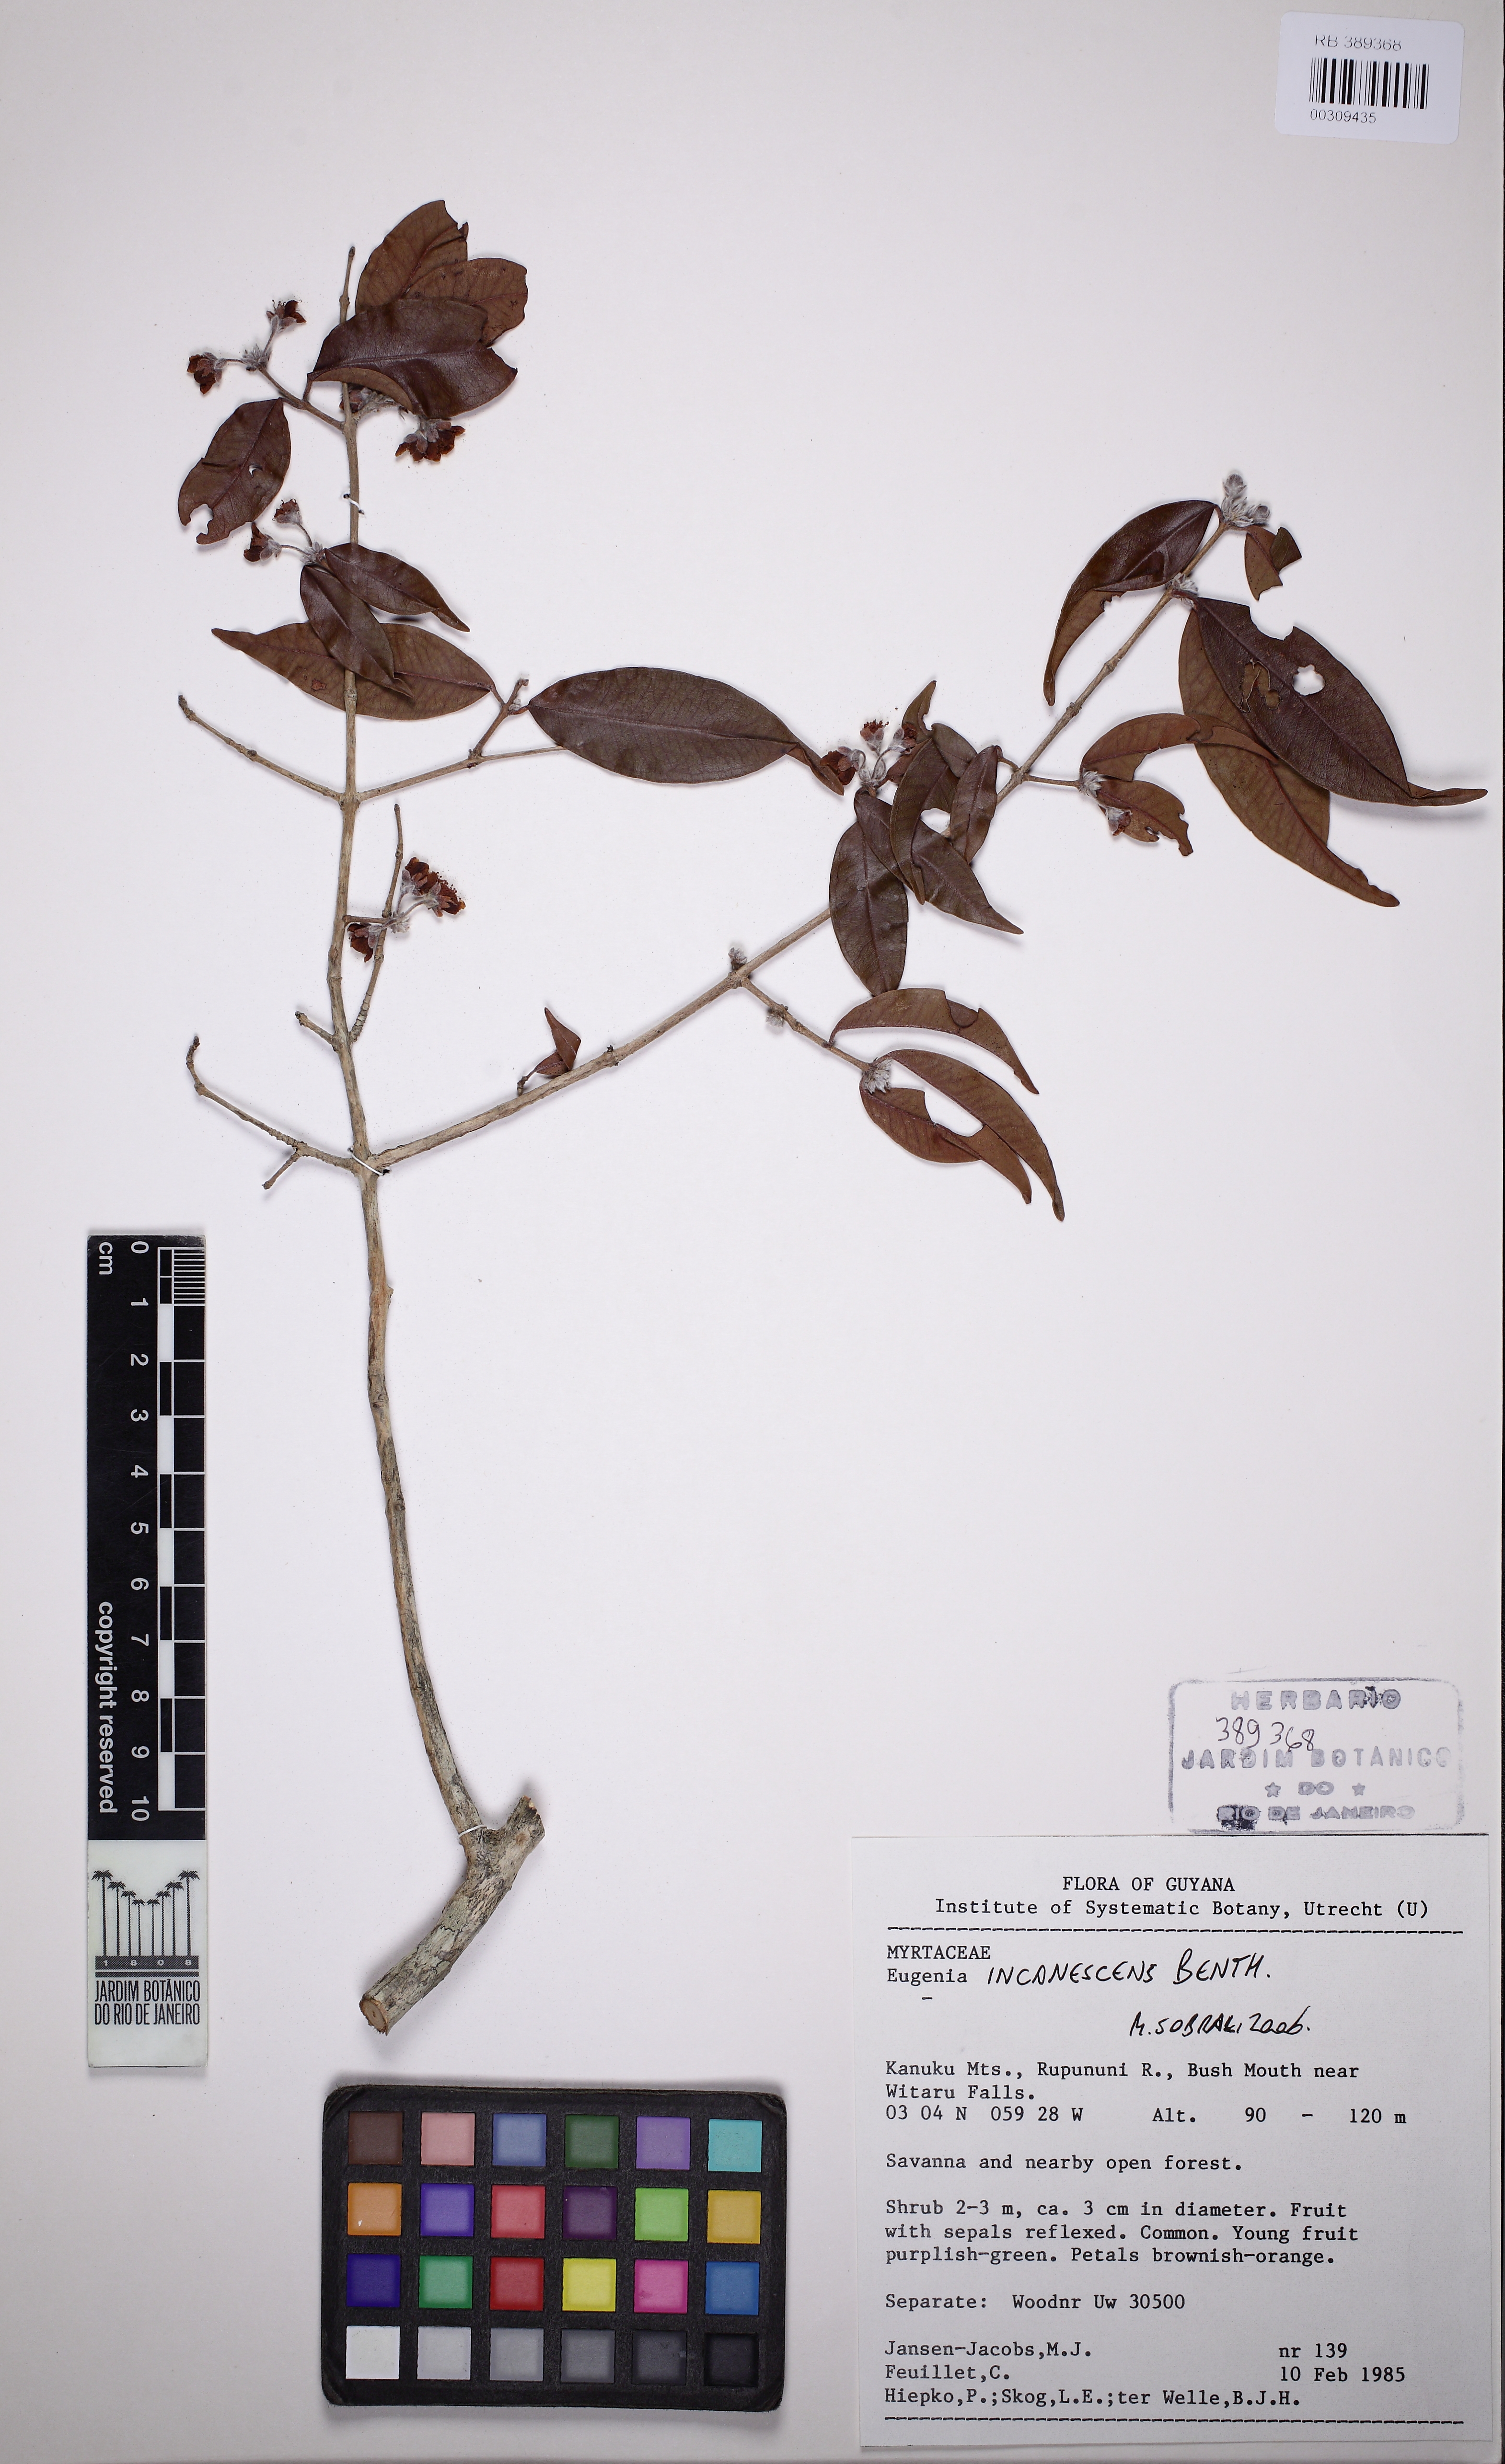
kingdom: Plantae
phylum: Tracheophyta
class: Magnoliopsida
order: Myrtales
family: Myrtaceae
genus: Eugenia
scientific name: Eugenia incanescens
